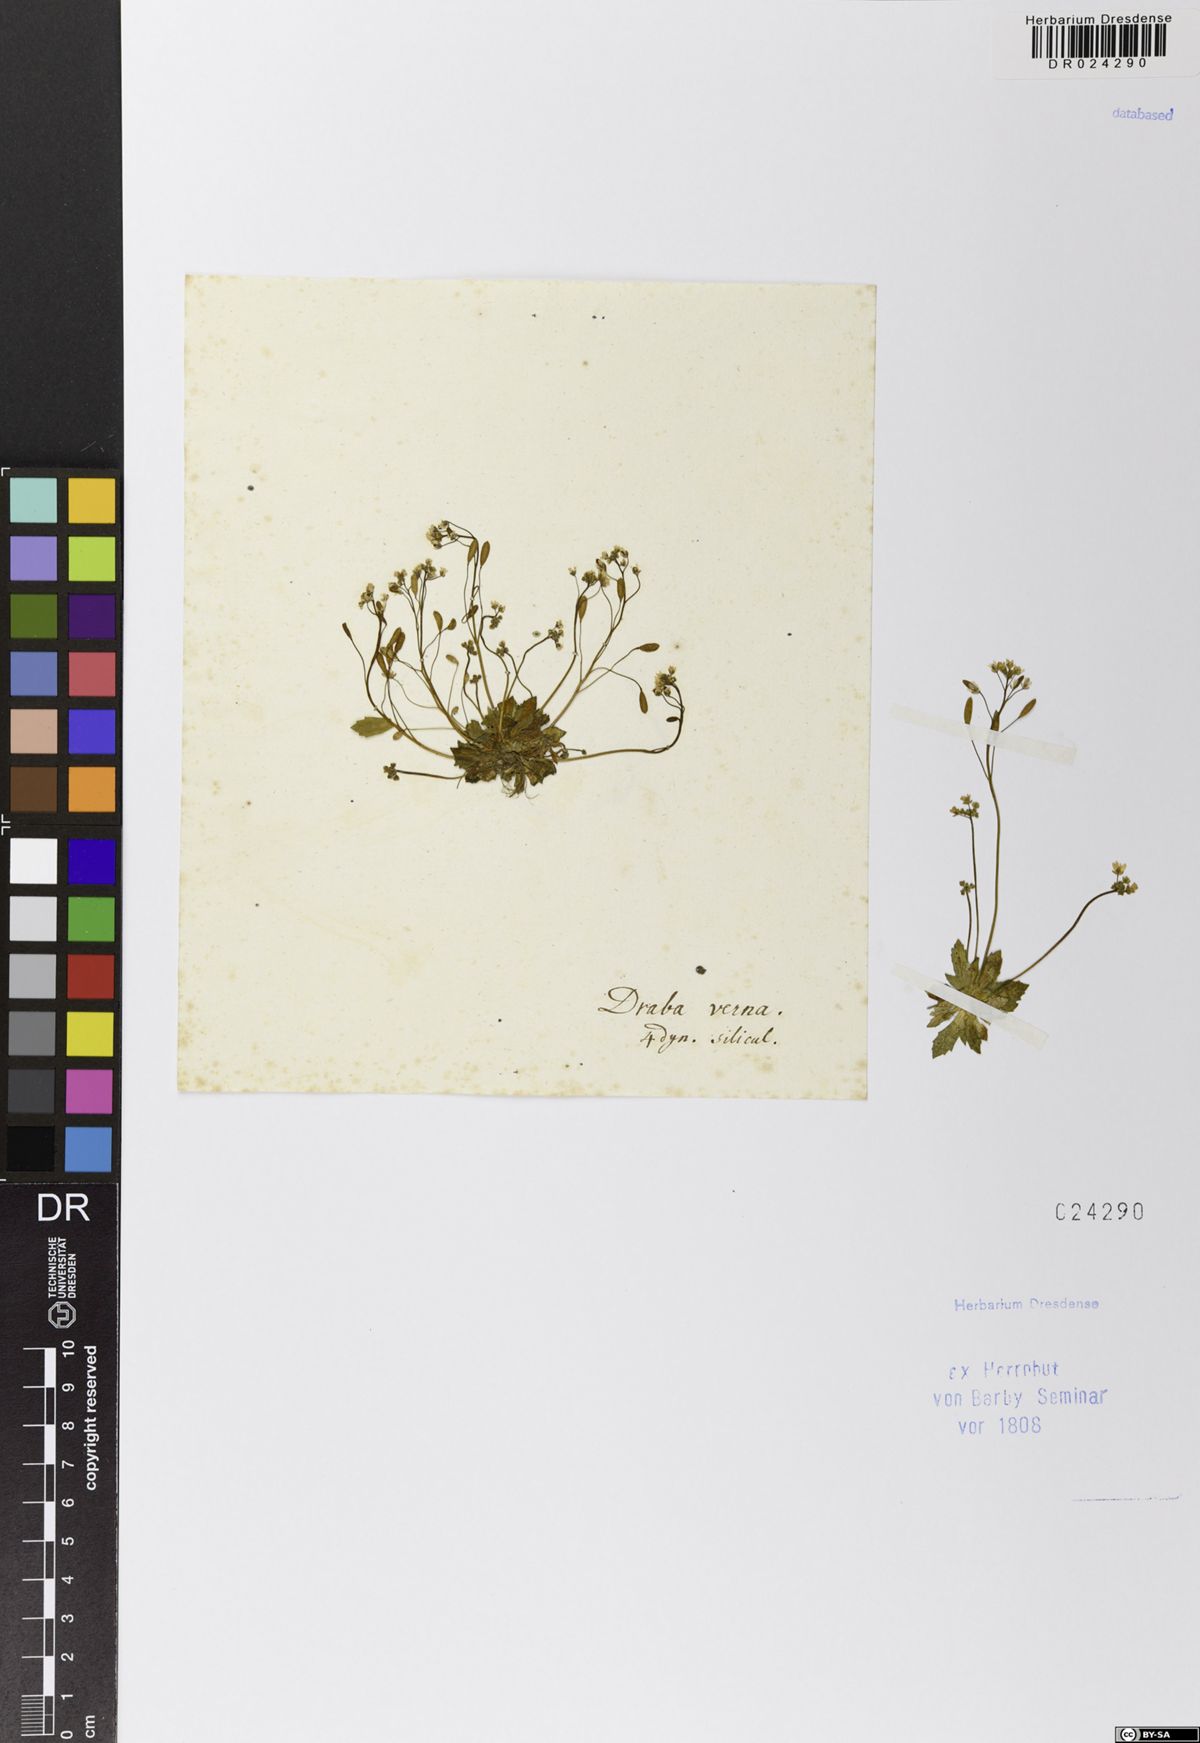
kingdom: Plantae
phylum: Tracheophyta
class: Magnoliopsida
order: Brassicales
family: Brassicaceae
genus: Draba
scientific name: Draba verna
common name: Spring draba
